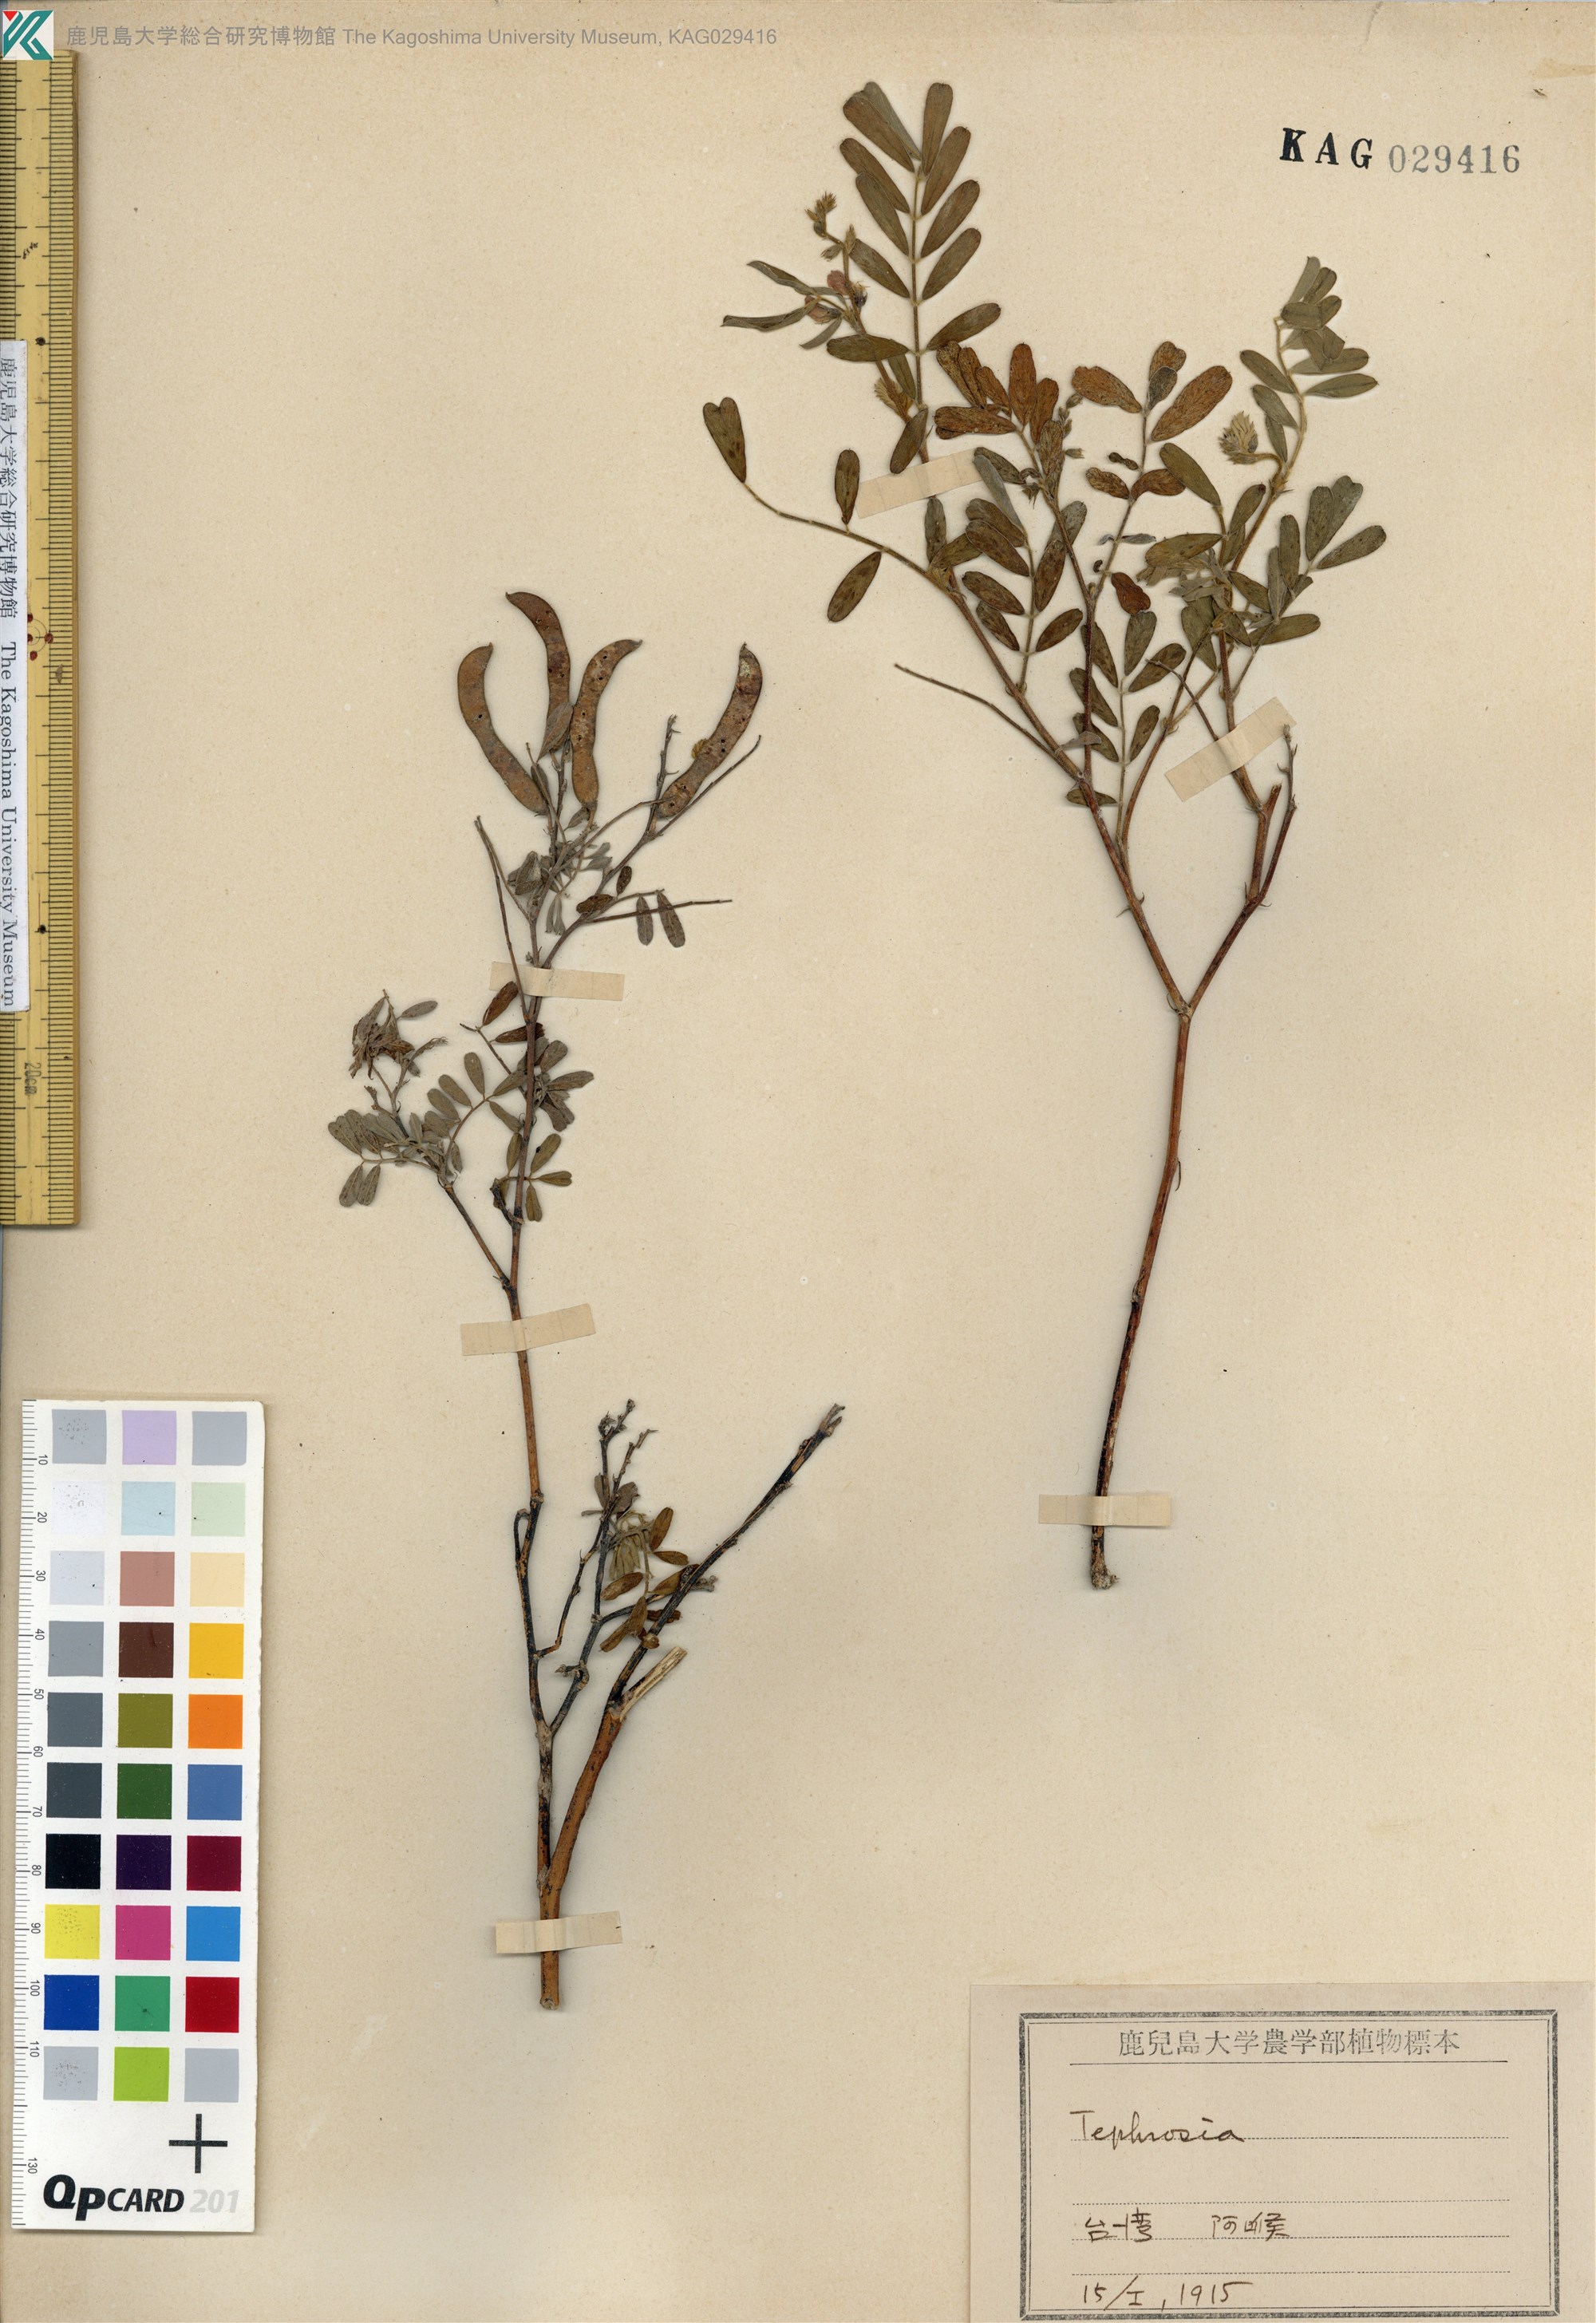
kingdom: Plantae
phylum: Tracheophyta
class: Magnoliopsida
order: Fabales
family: Fabaceae
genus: Tephrosia
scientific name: Tephrosia purpurea
